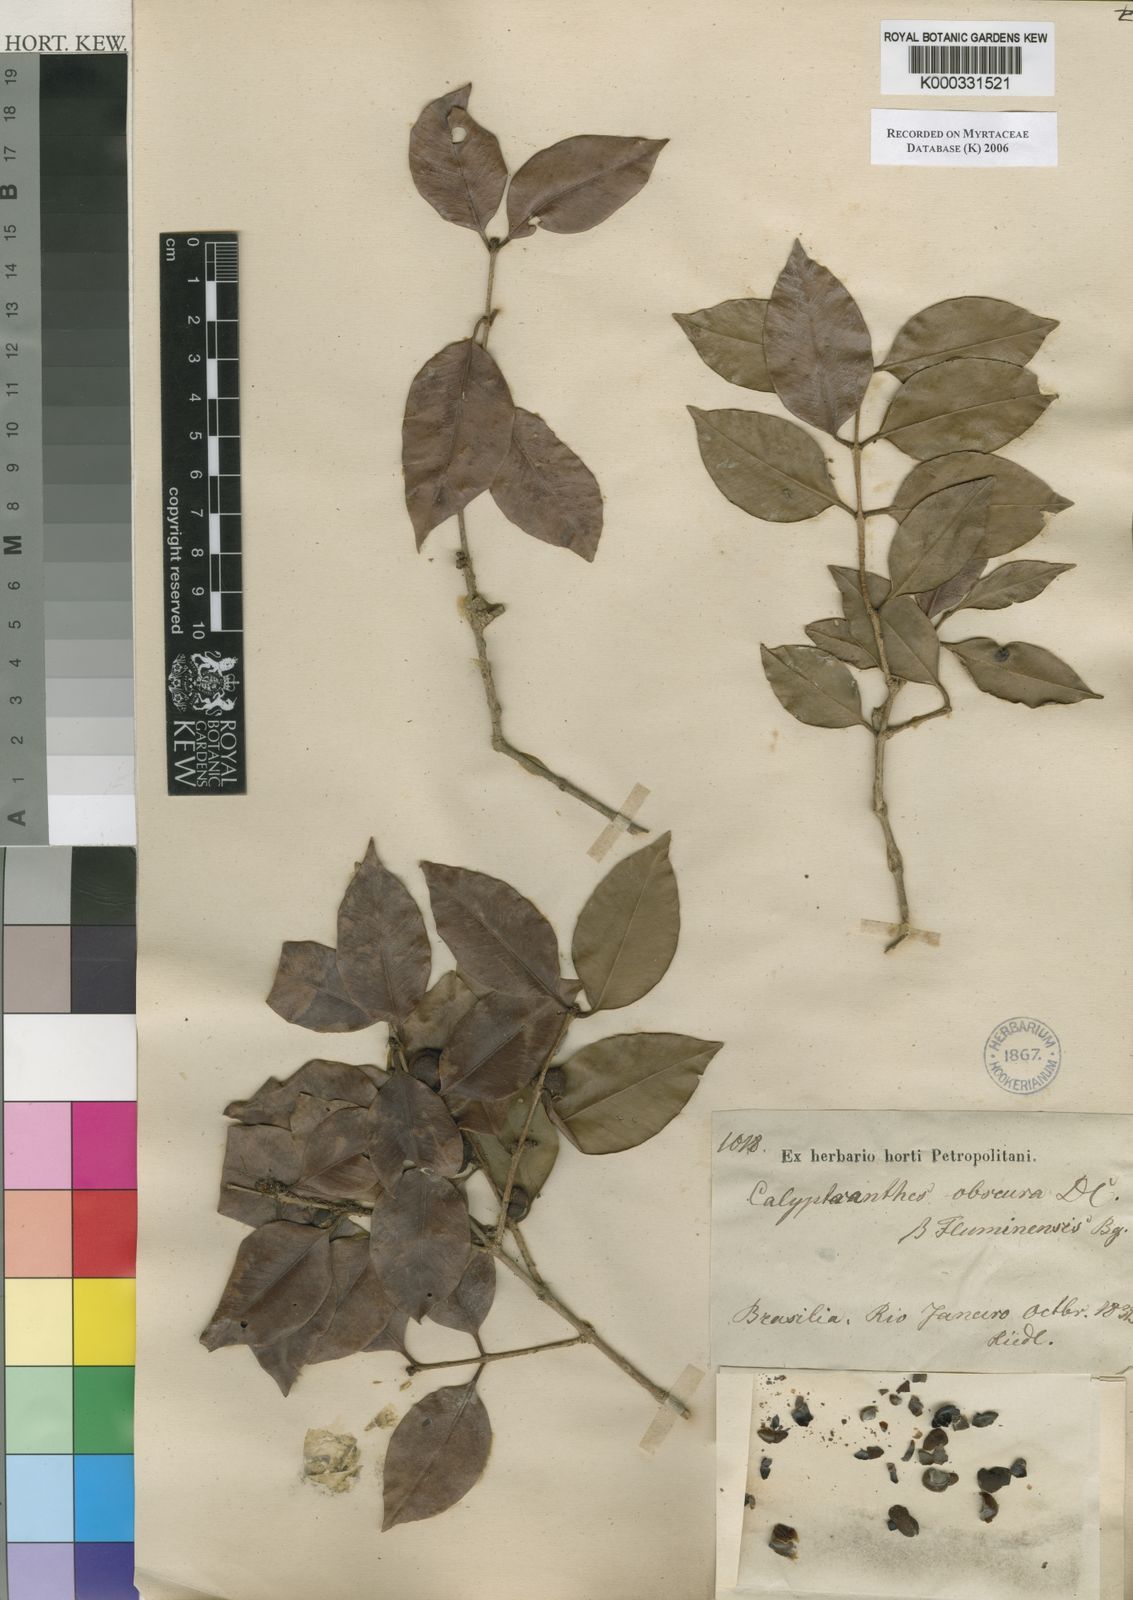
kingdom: Plantae
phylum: Tracheophyta
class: Magnoliopsida
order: Myrtales
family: Myrtaceae
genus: Neomitranthes
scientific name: Neomitranthes obscura
